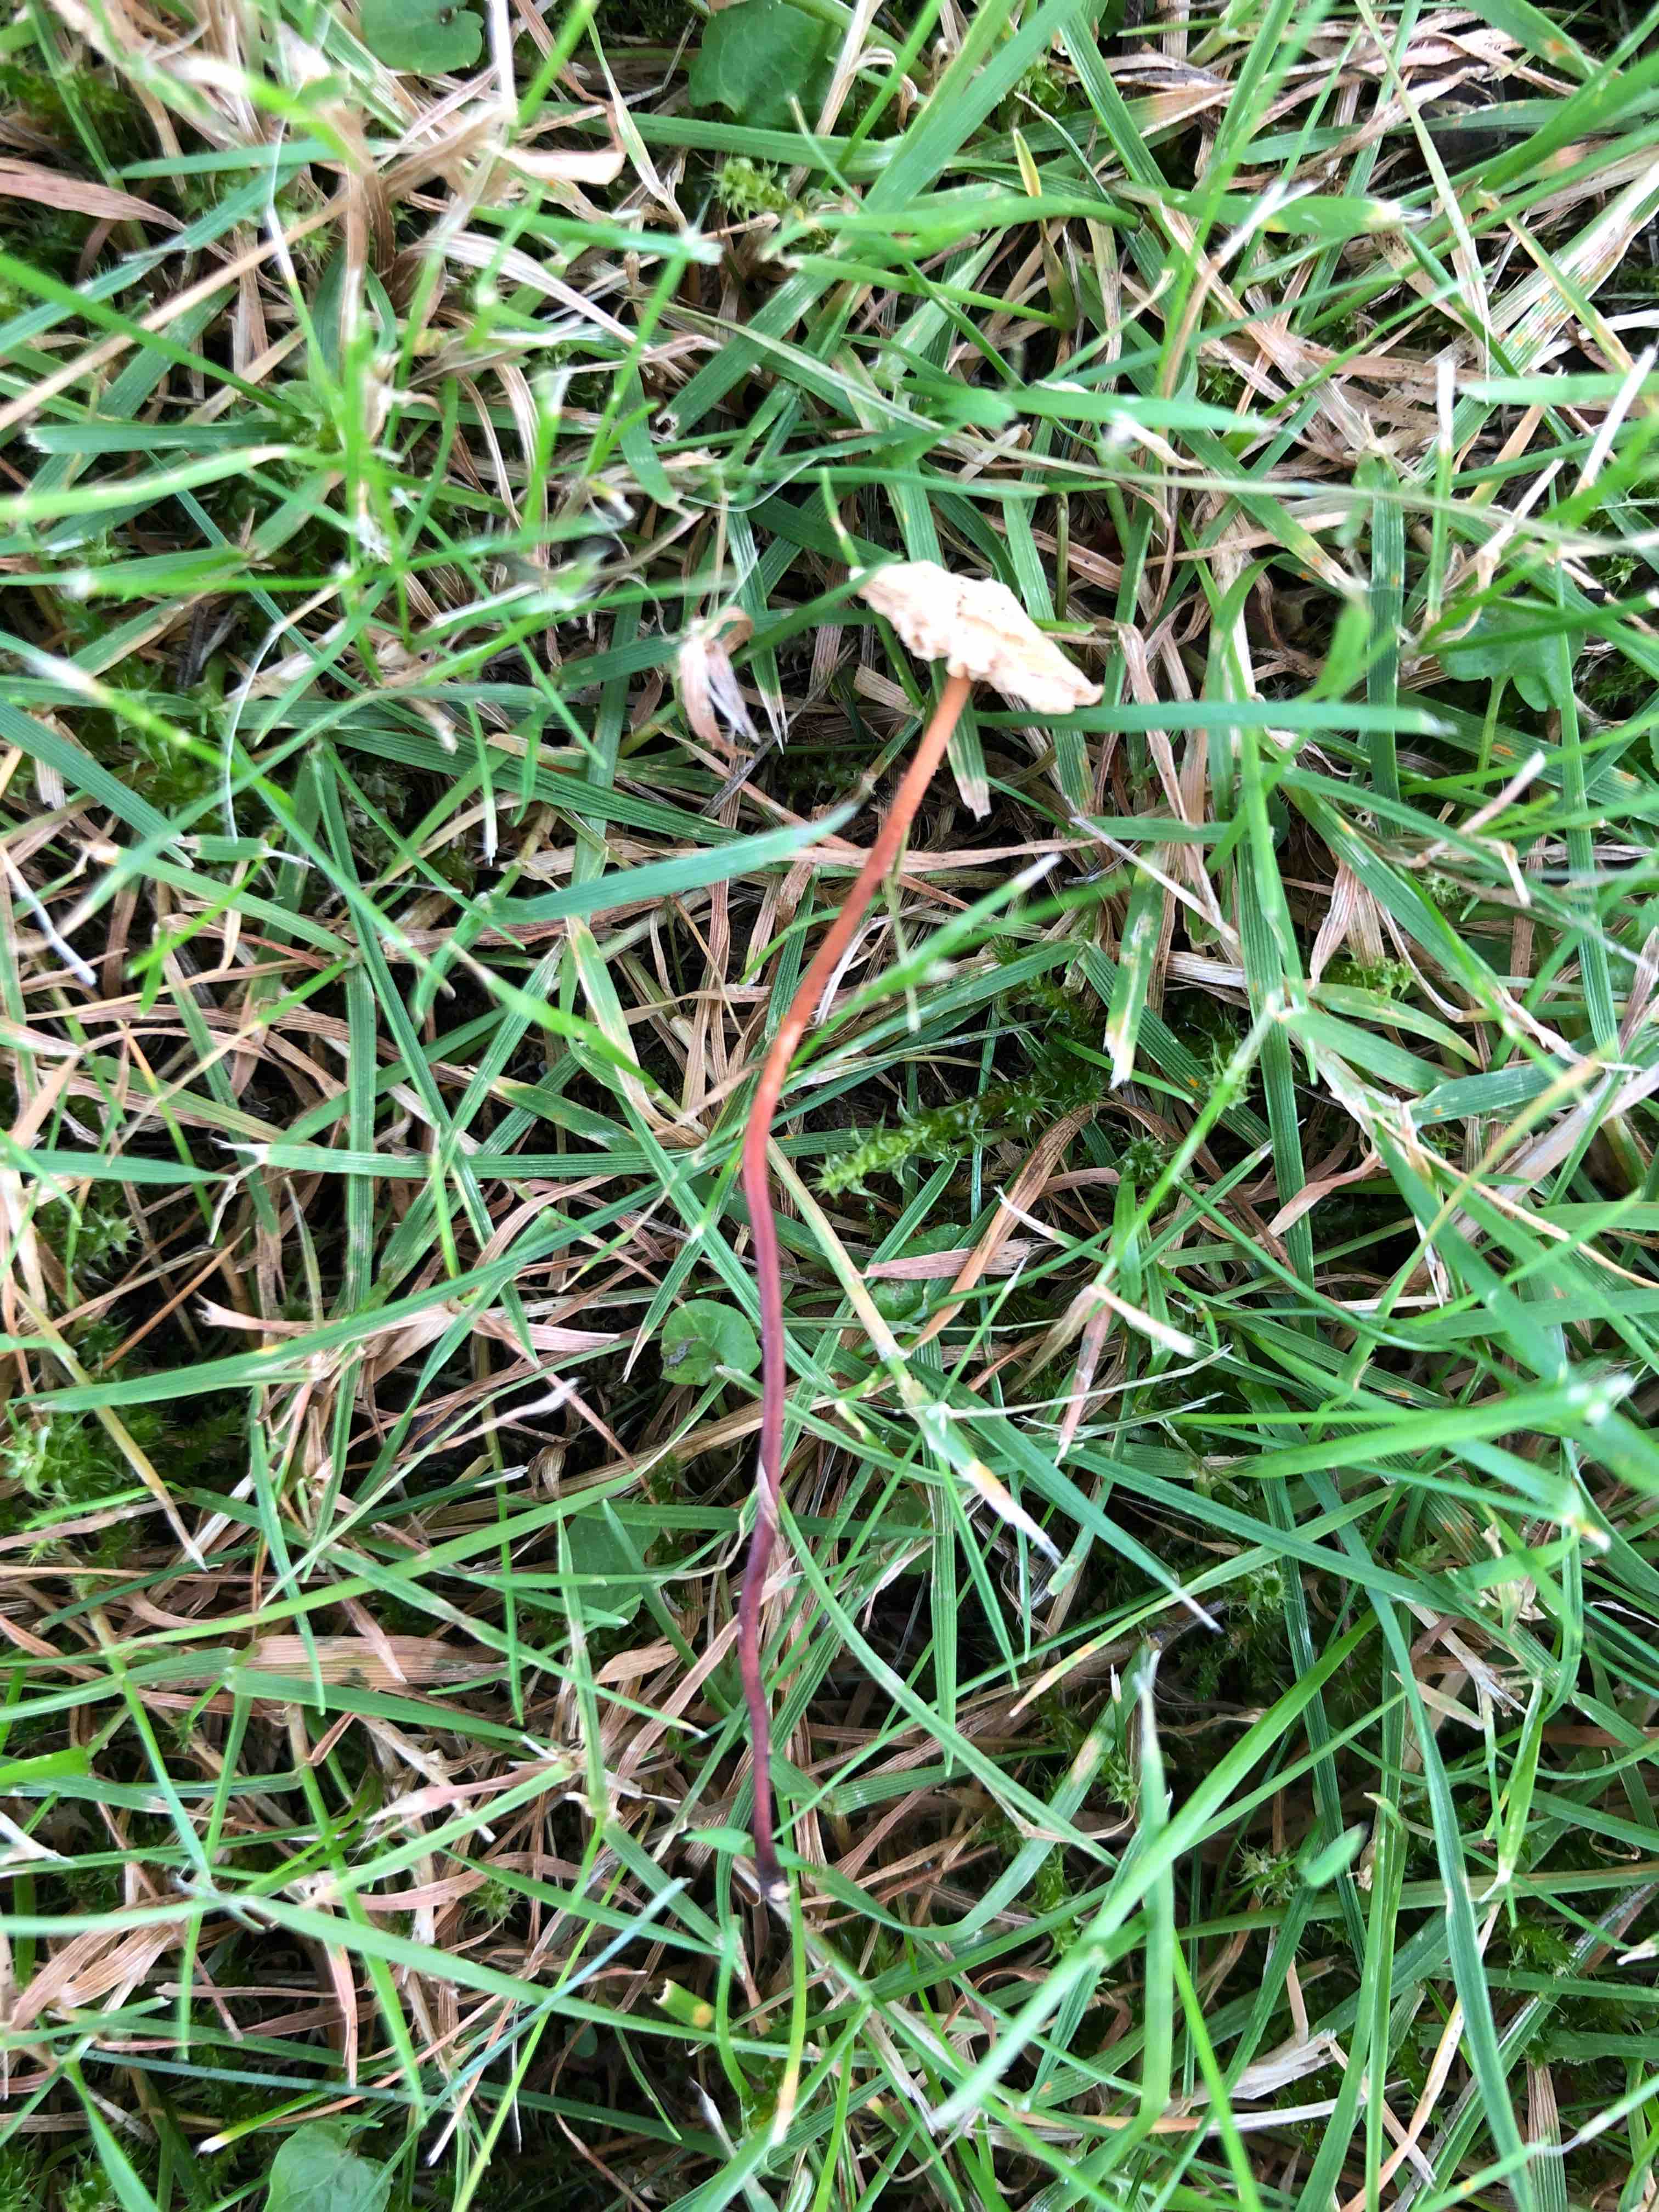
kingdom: Fungi
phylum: Basidiomycota
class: Agaricomycetes
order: Agaricales
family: Omphalotaceae
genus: Mycetinis
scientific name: Mycetinis scorodonius
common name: lille løghat
